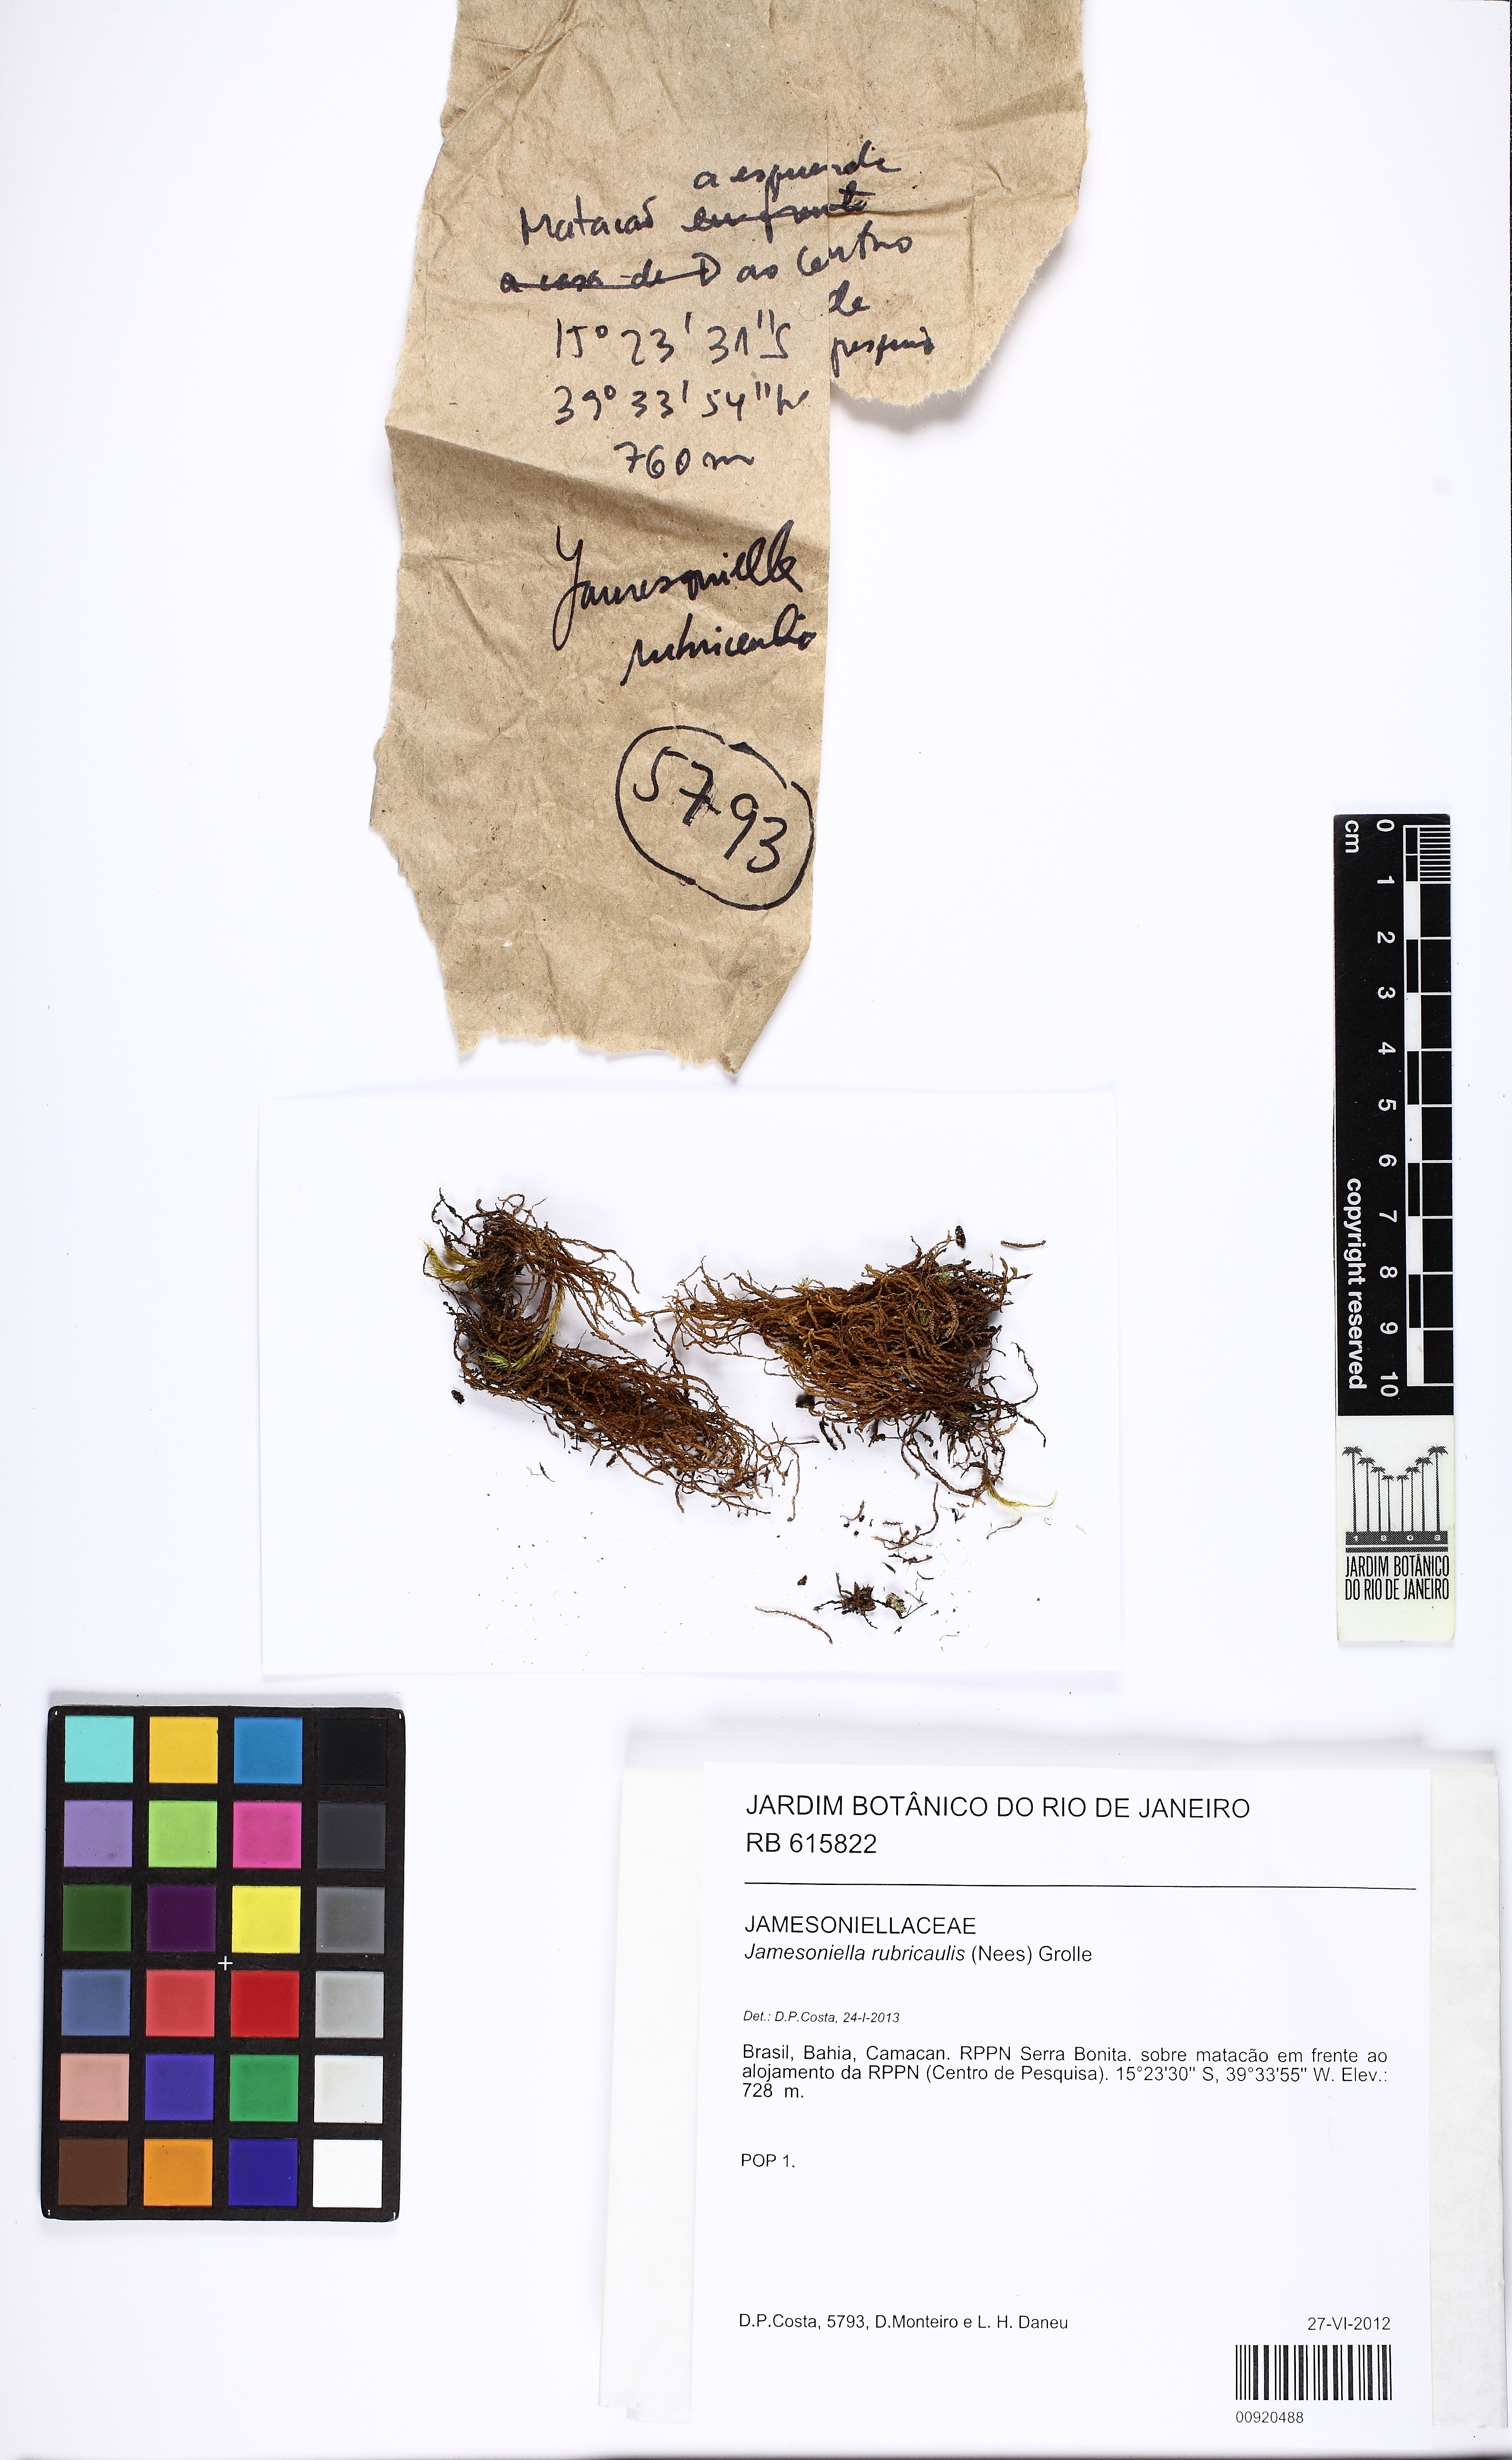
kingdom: Plantae
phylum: Marchantiophyta
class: Jungermanniopsida
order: Jungermanniales
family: Adelanthaceae
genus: Syzygiella
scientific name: Syzygiella rubricaulis
